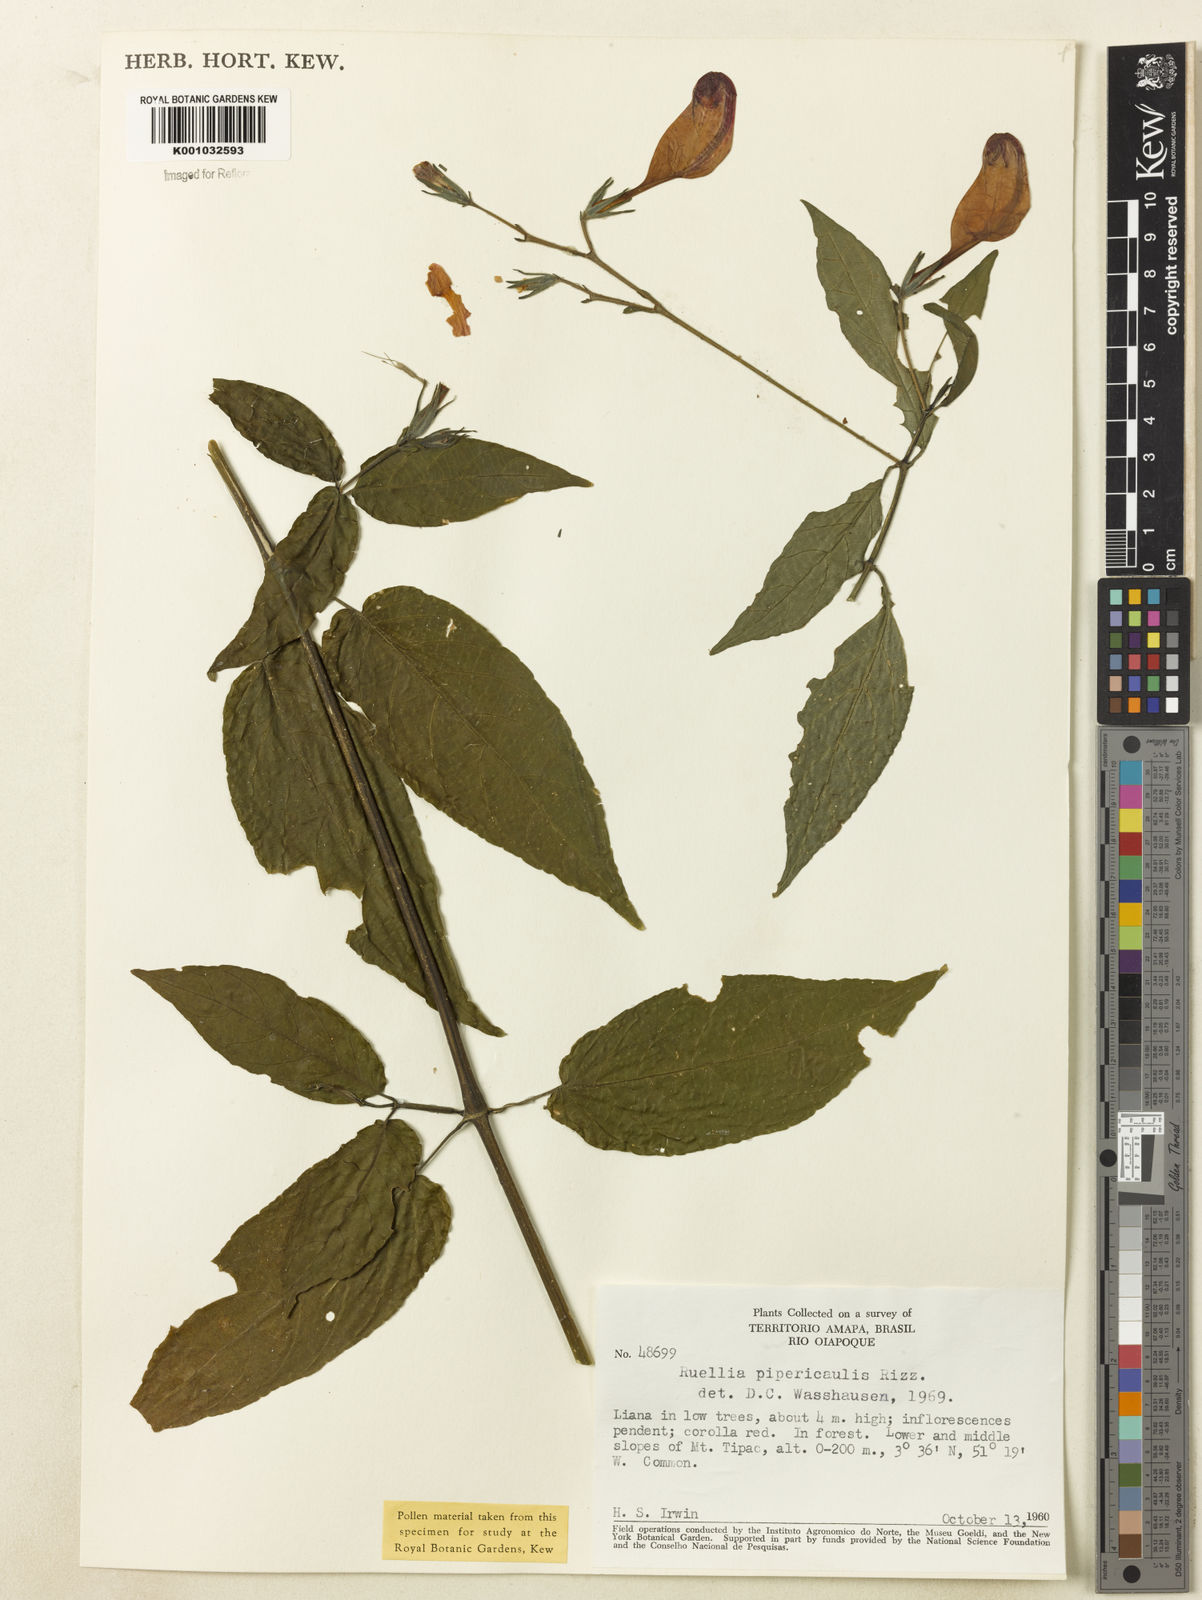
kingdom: Plantae
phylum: Tracheophyta
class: Magnoliopsida
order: Lamiales
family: Acanthaceae
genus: Ruellia
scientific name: Ruellia inflata
